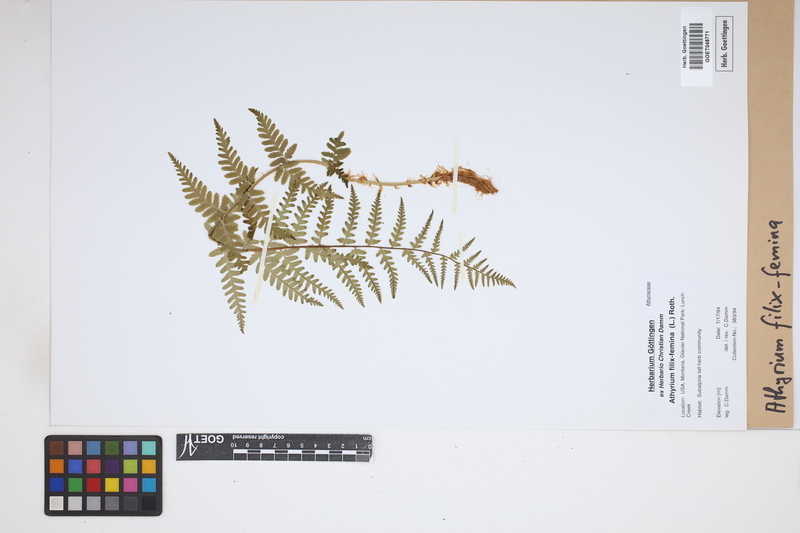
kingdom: Plantae
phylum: Tracheophyta
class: Polypodiopsida
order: Polypodiales
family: Athyriaceae
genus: Athyrium
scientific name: Athyrium filix-femina
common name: Lady fern
